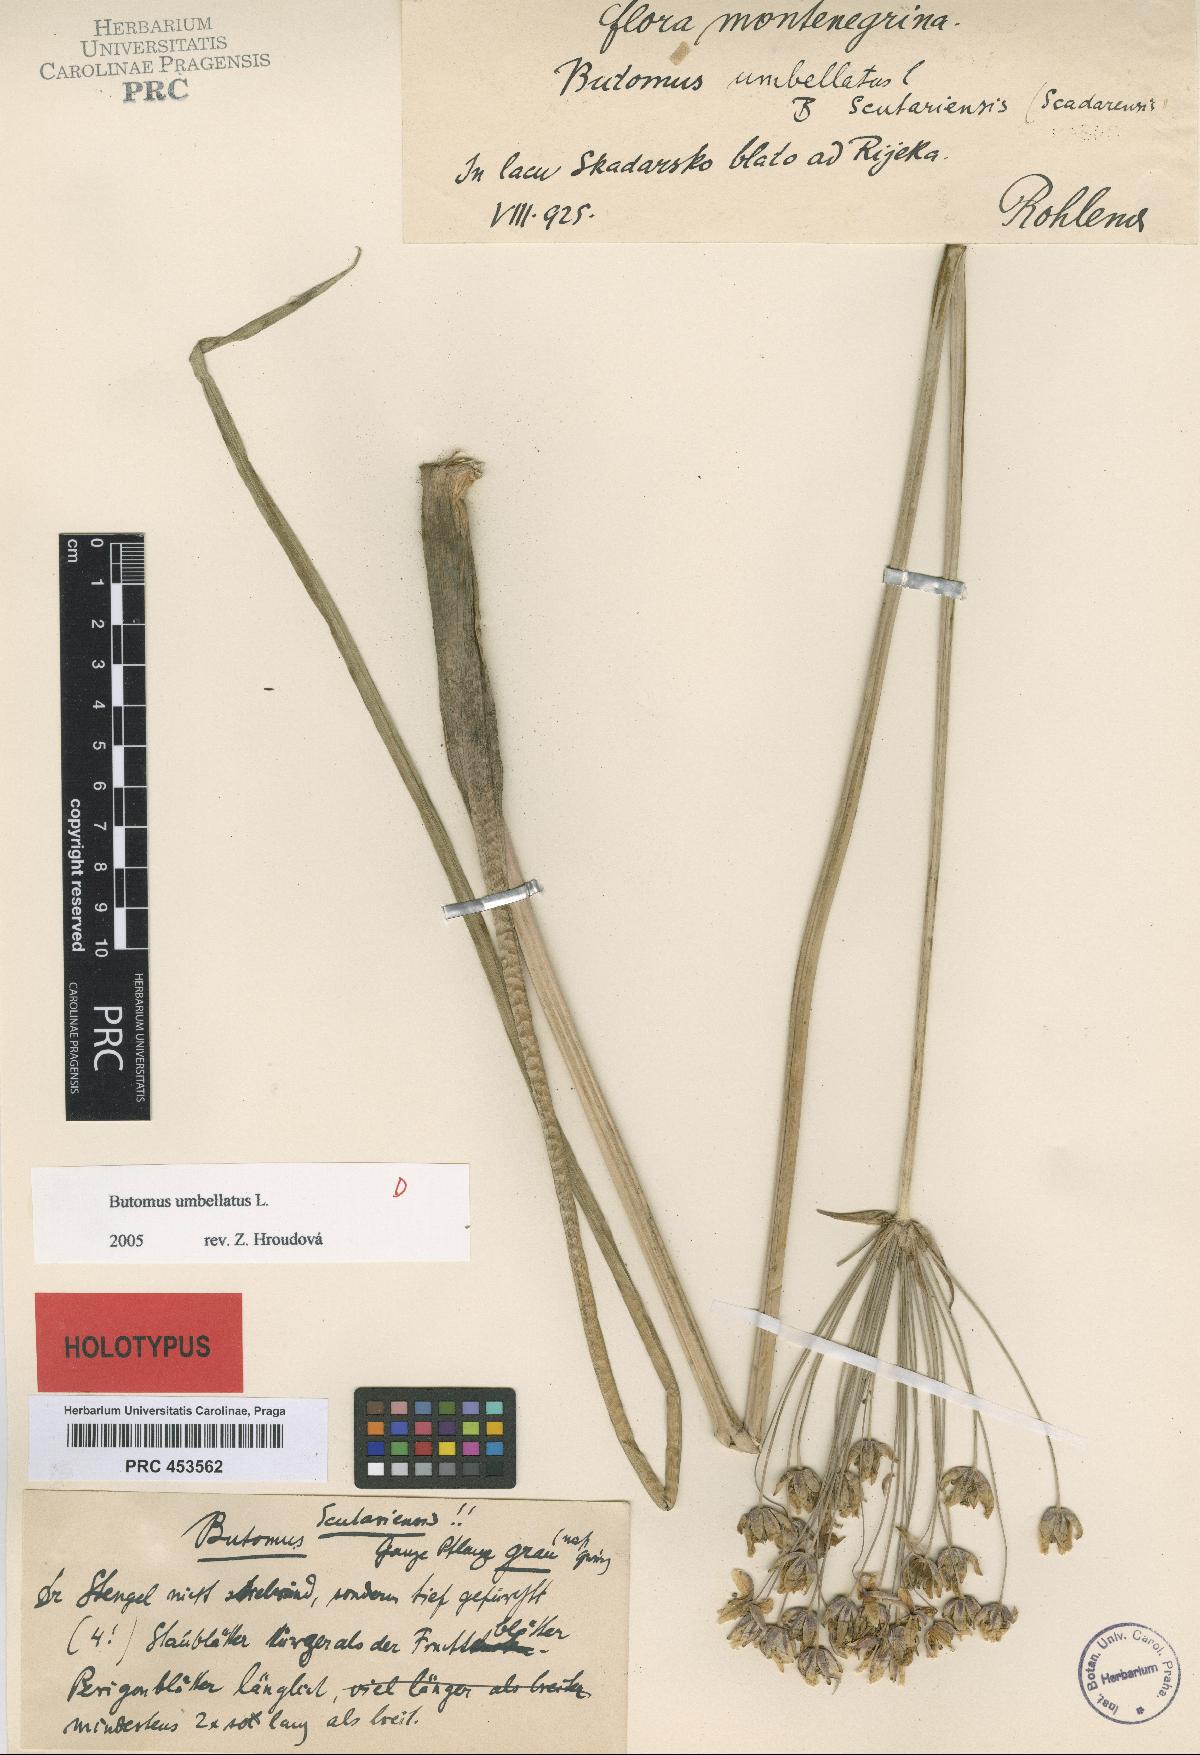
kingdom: Plantae
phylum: Tracheophyta
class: Liliopsida
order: Alismatales
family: Butomaceae
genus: Butomus
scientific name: Butomus umbellatus
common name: Flowering-rush
